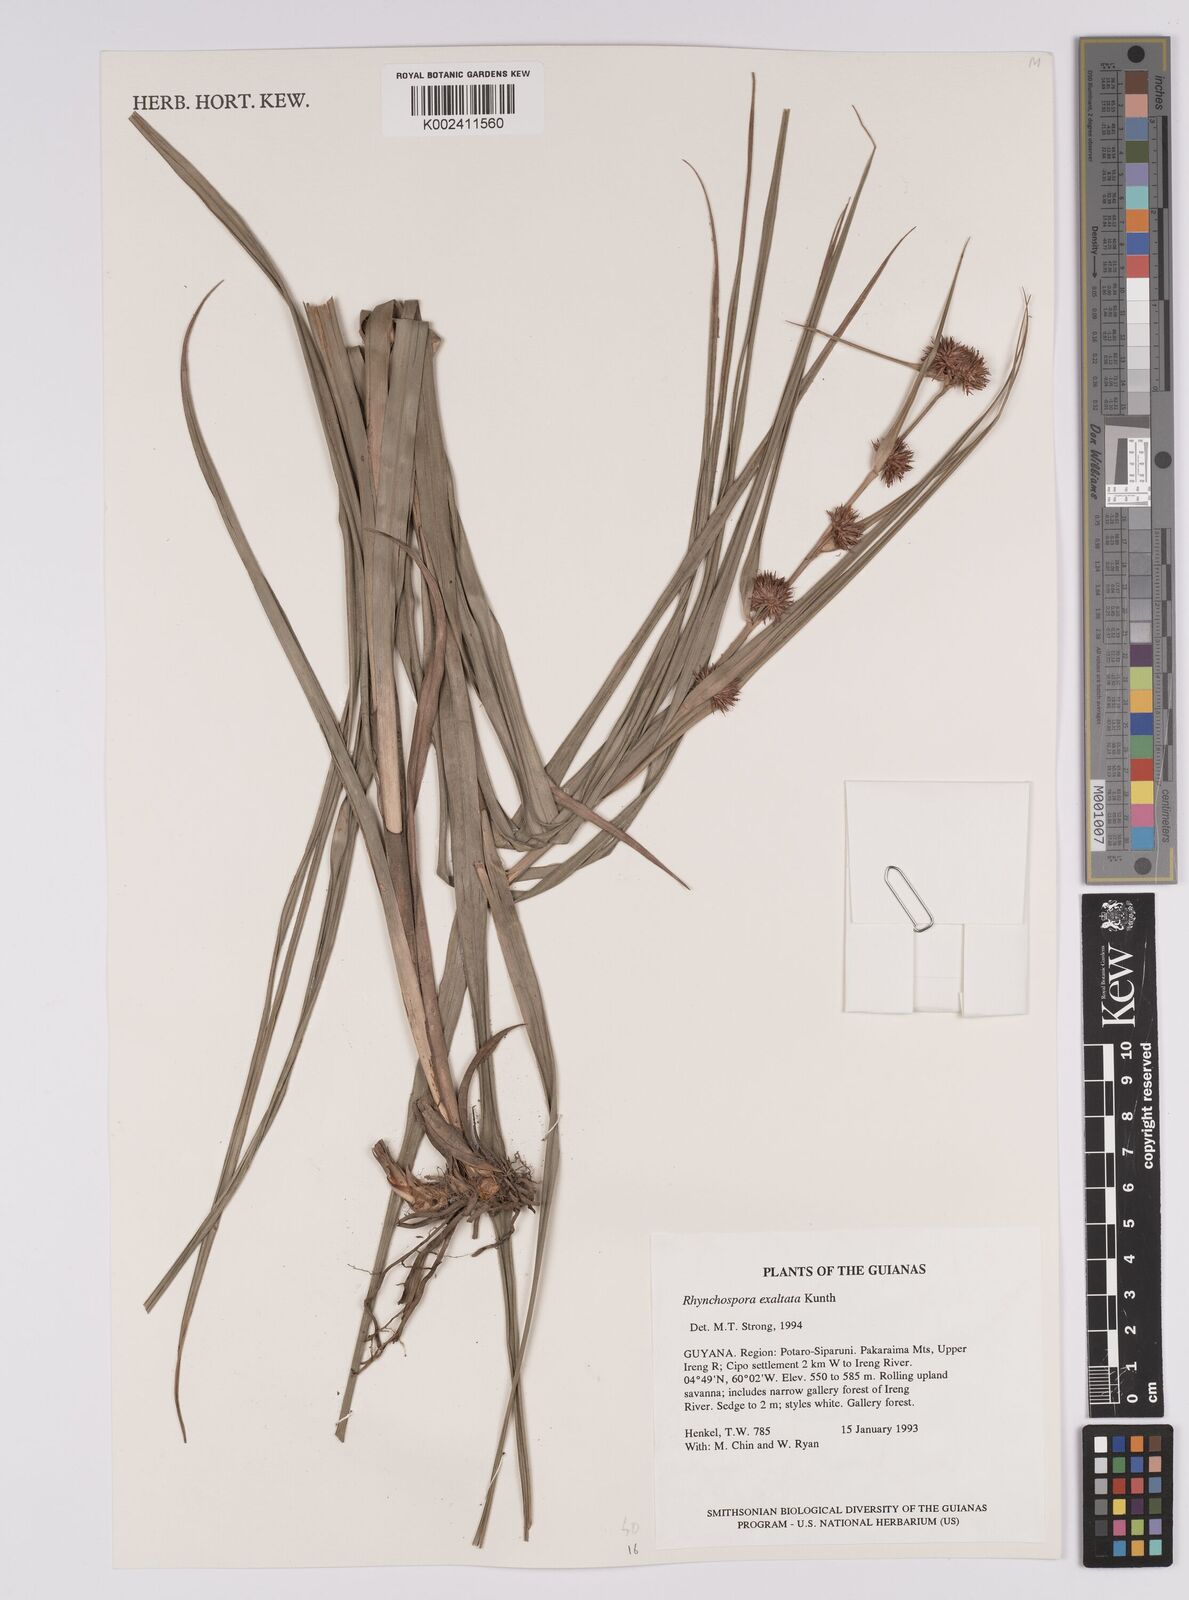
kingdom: Plantae
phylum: Tracheophyta
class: Liliopsida
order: Poales
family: Cyperaceae
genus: Rhynchospora
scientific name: Rhynchospora exaltata
